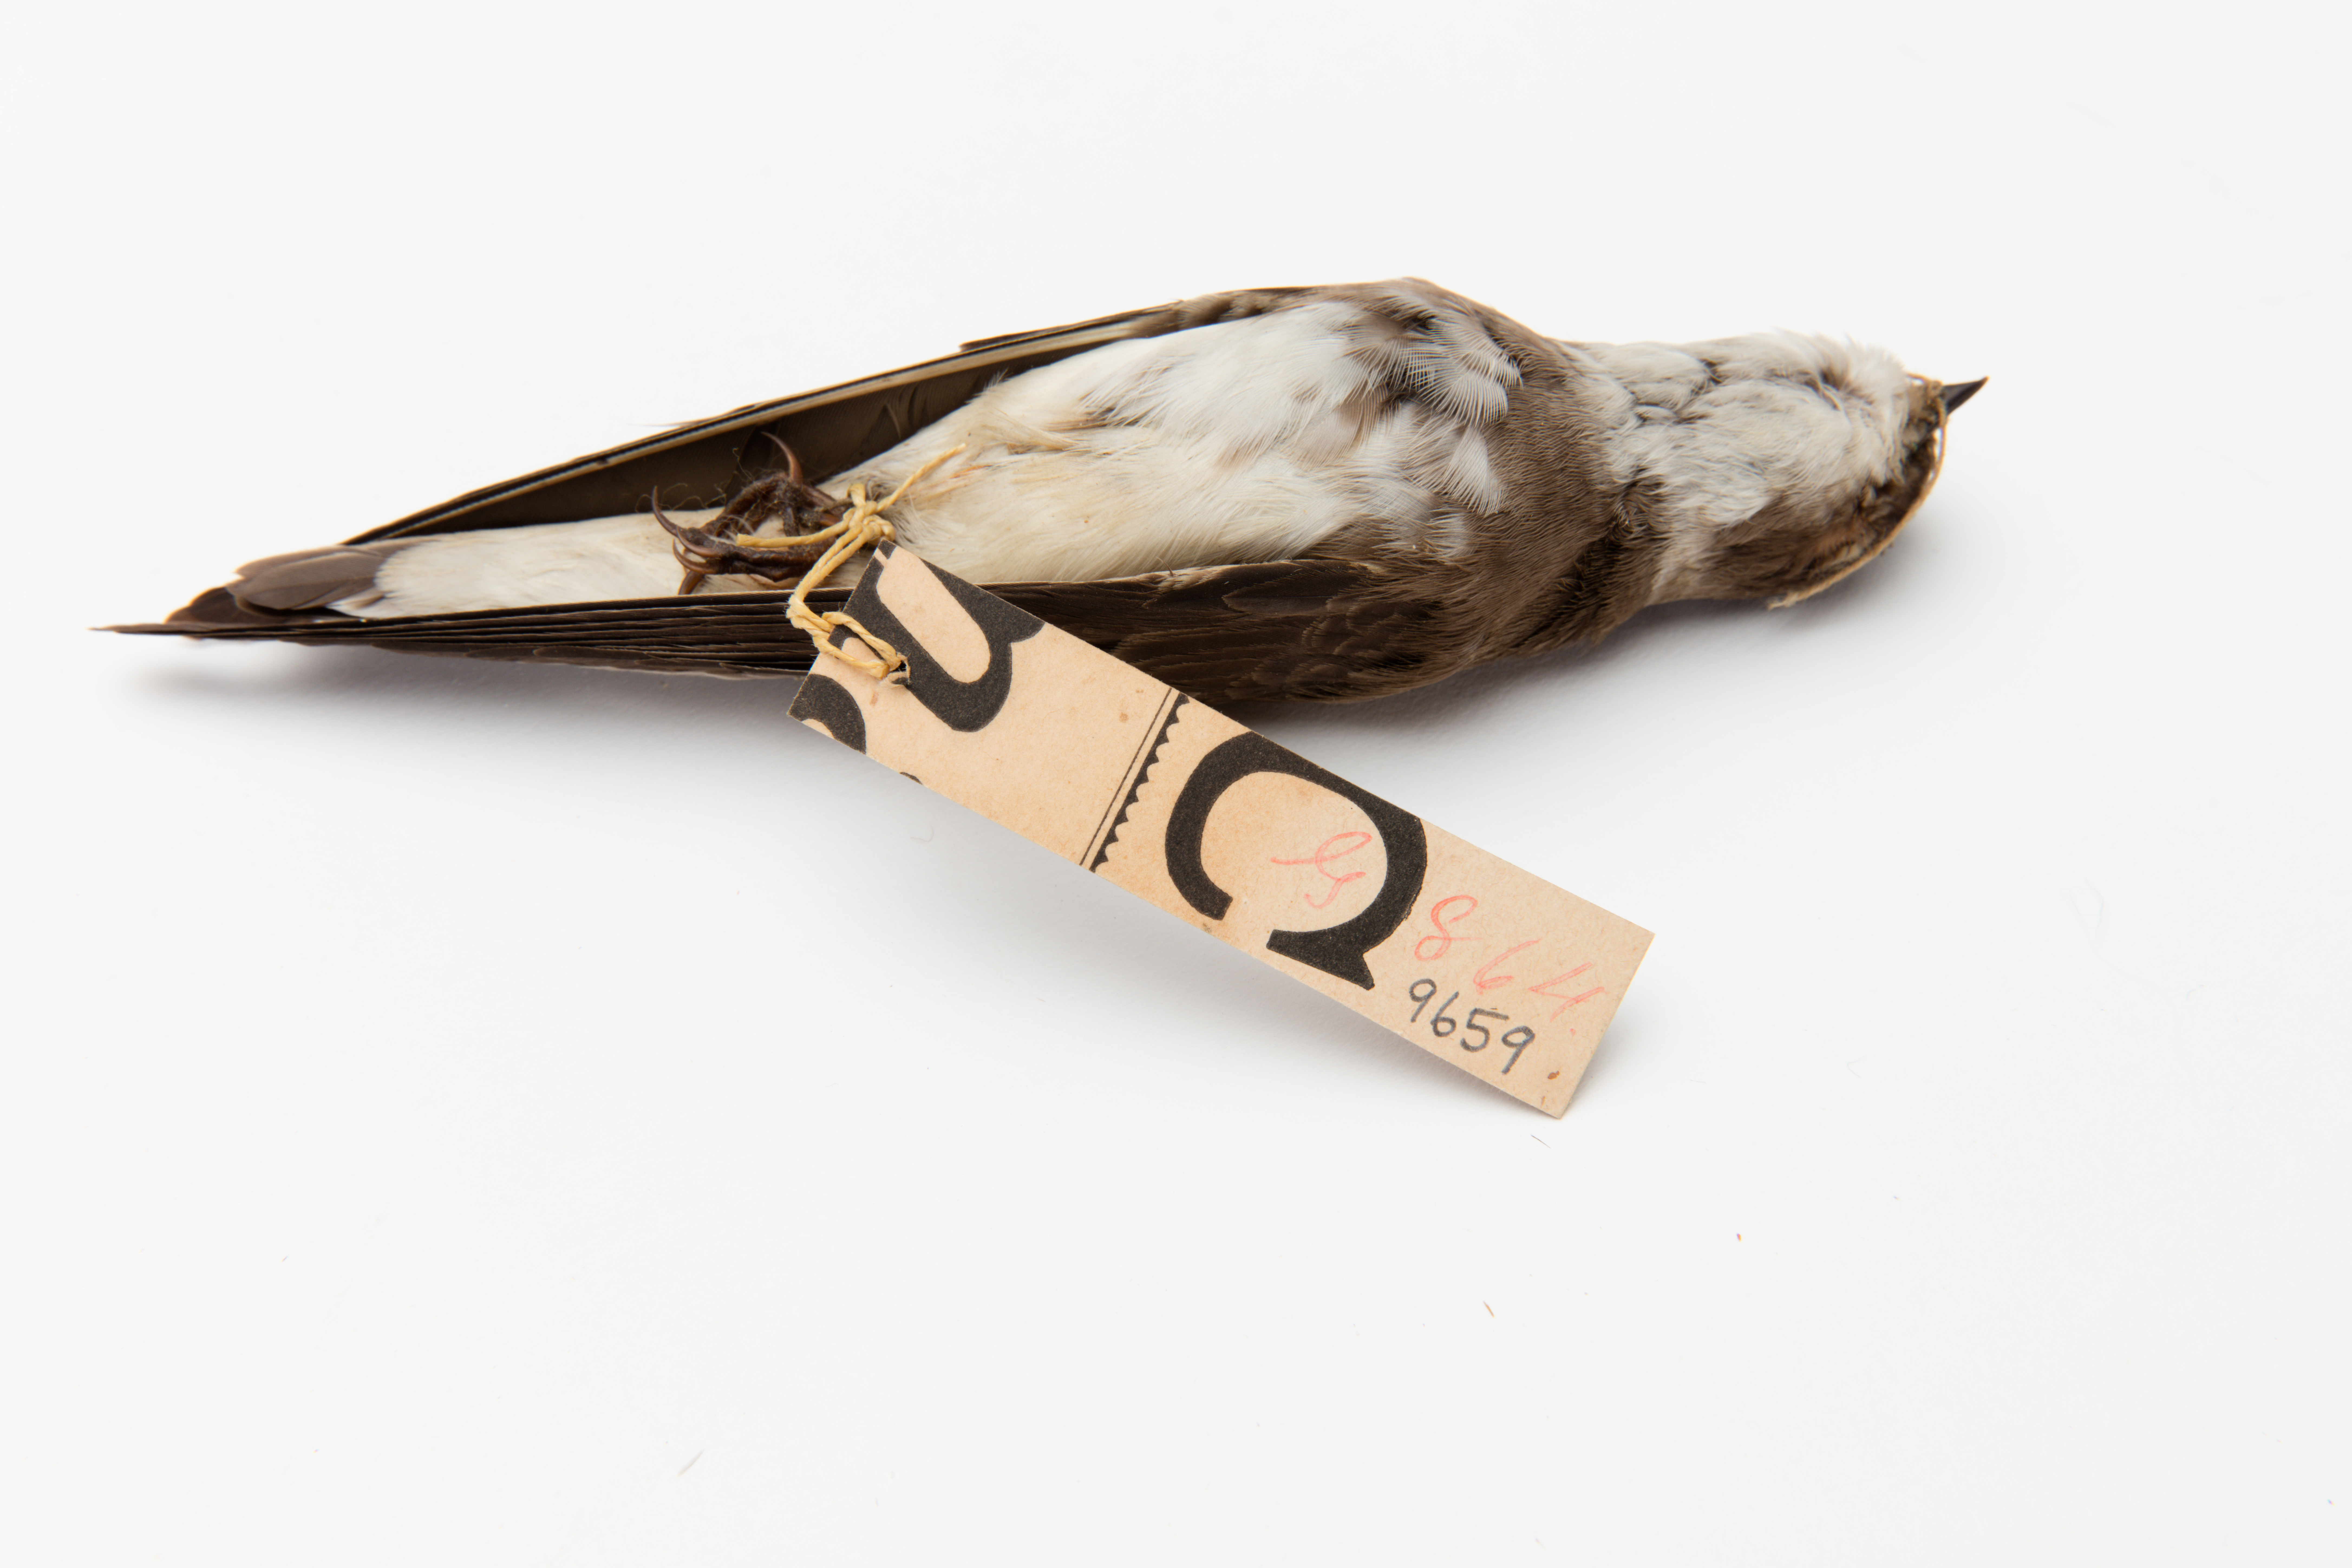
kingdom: Animalia
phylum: Chordata
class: Aves
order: Passeriformes
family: Hirundinidae
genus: Riparia
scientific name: Riparia riparia
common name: Sand martin
